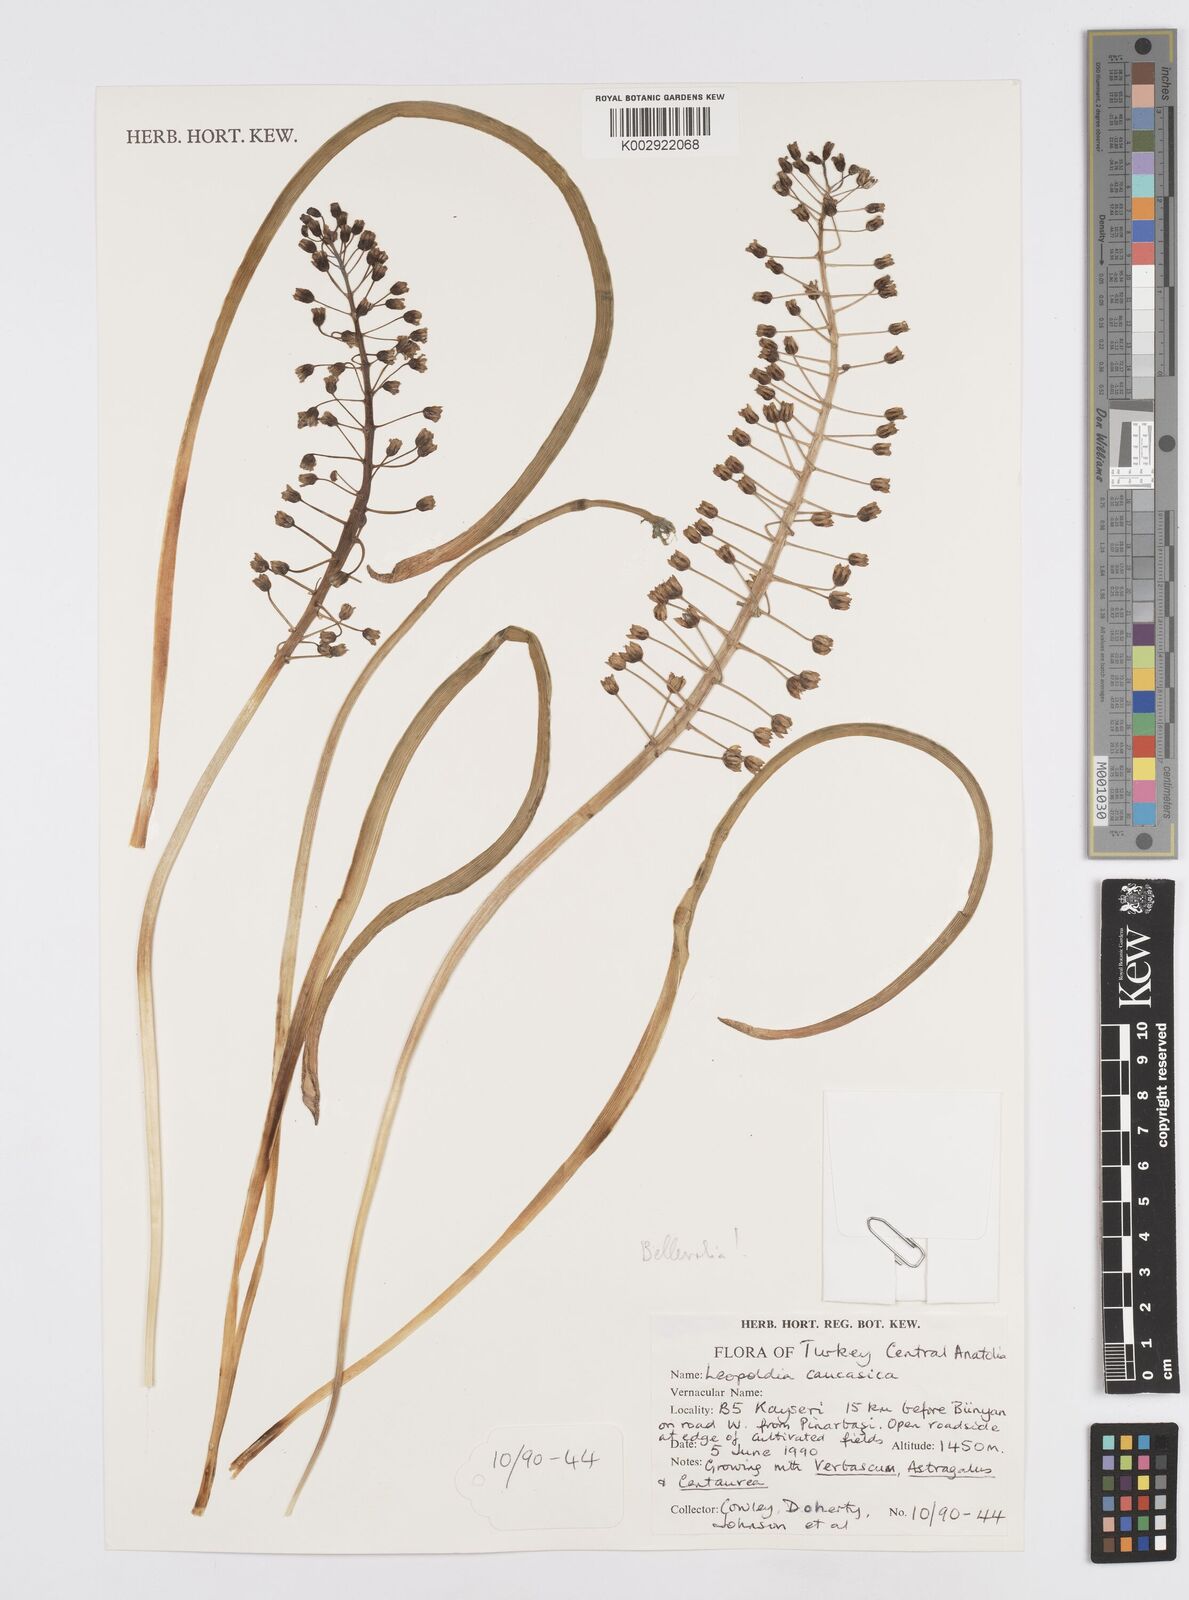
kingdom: Plantae
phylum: Tracheophyta
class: Liliopsida
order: Asparagales
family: Asparagaceae
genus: Muscari
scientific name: Muscari caucasicum
